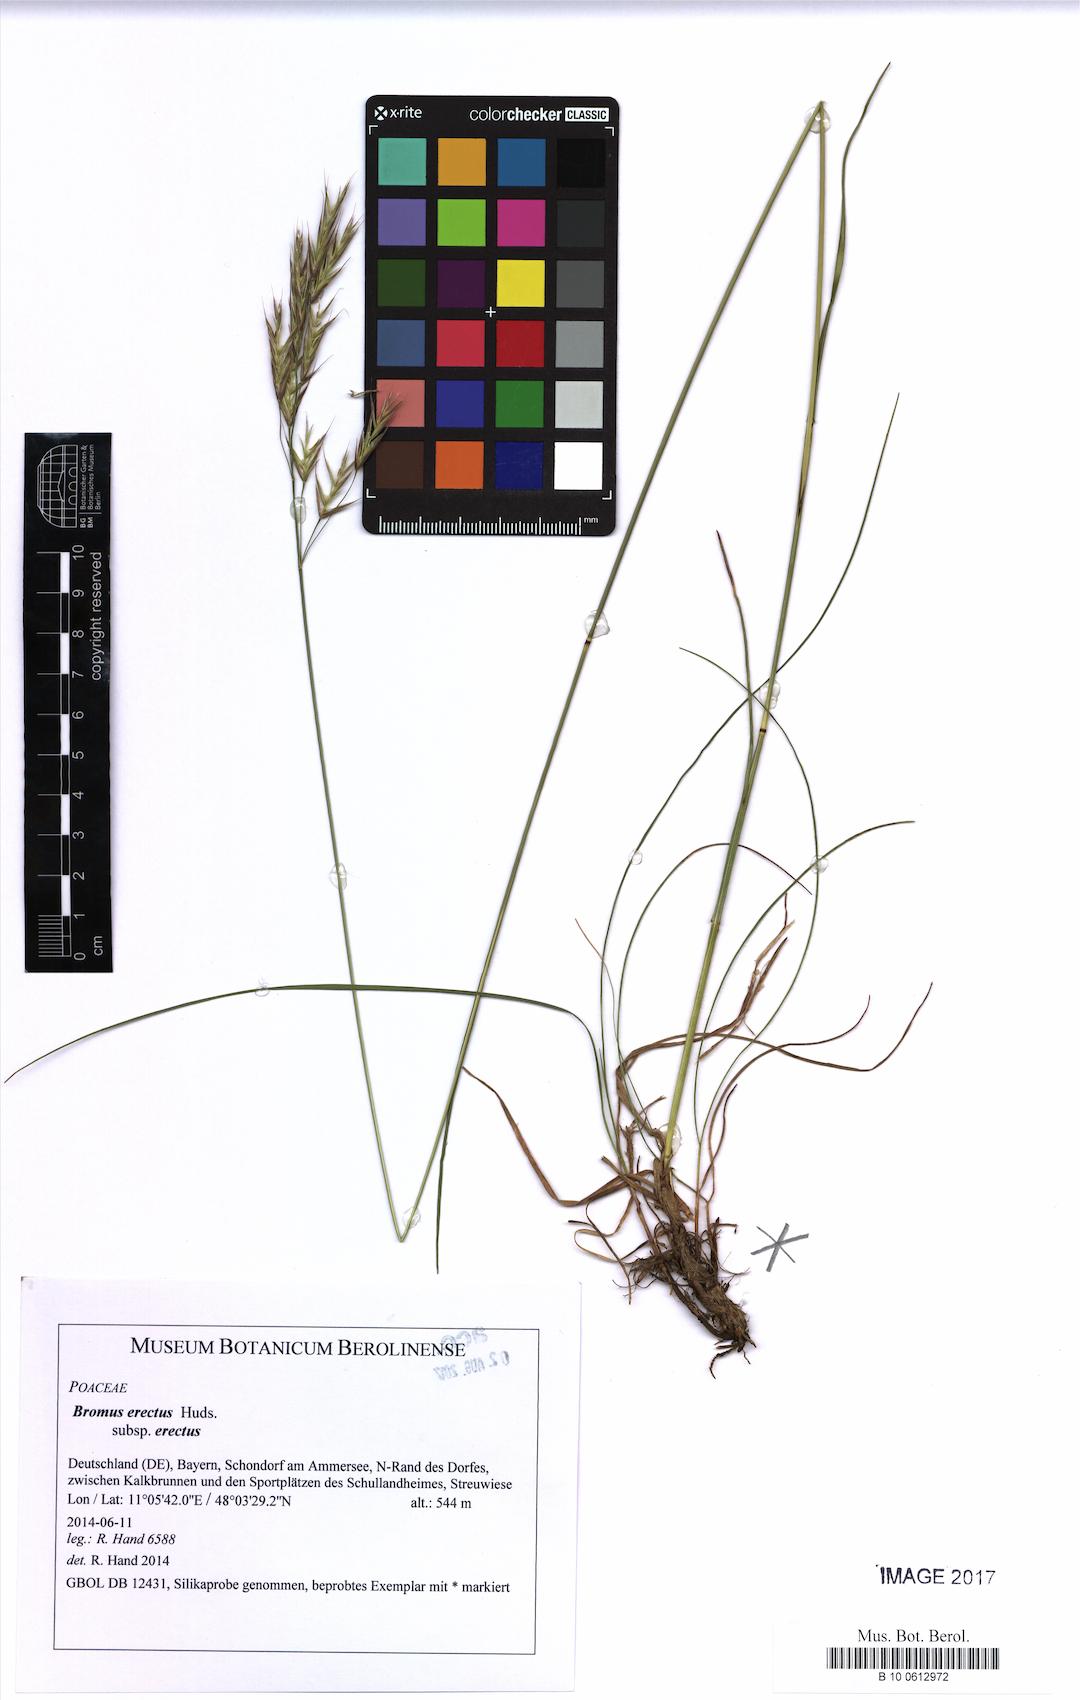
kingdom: Plantae
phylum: Tracheophyta
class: Liliopsida
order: Poales
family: Poaceae
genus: Bromus
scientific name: Bromus erectus
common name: Erect brome
